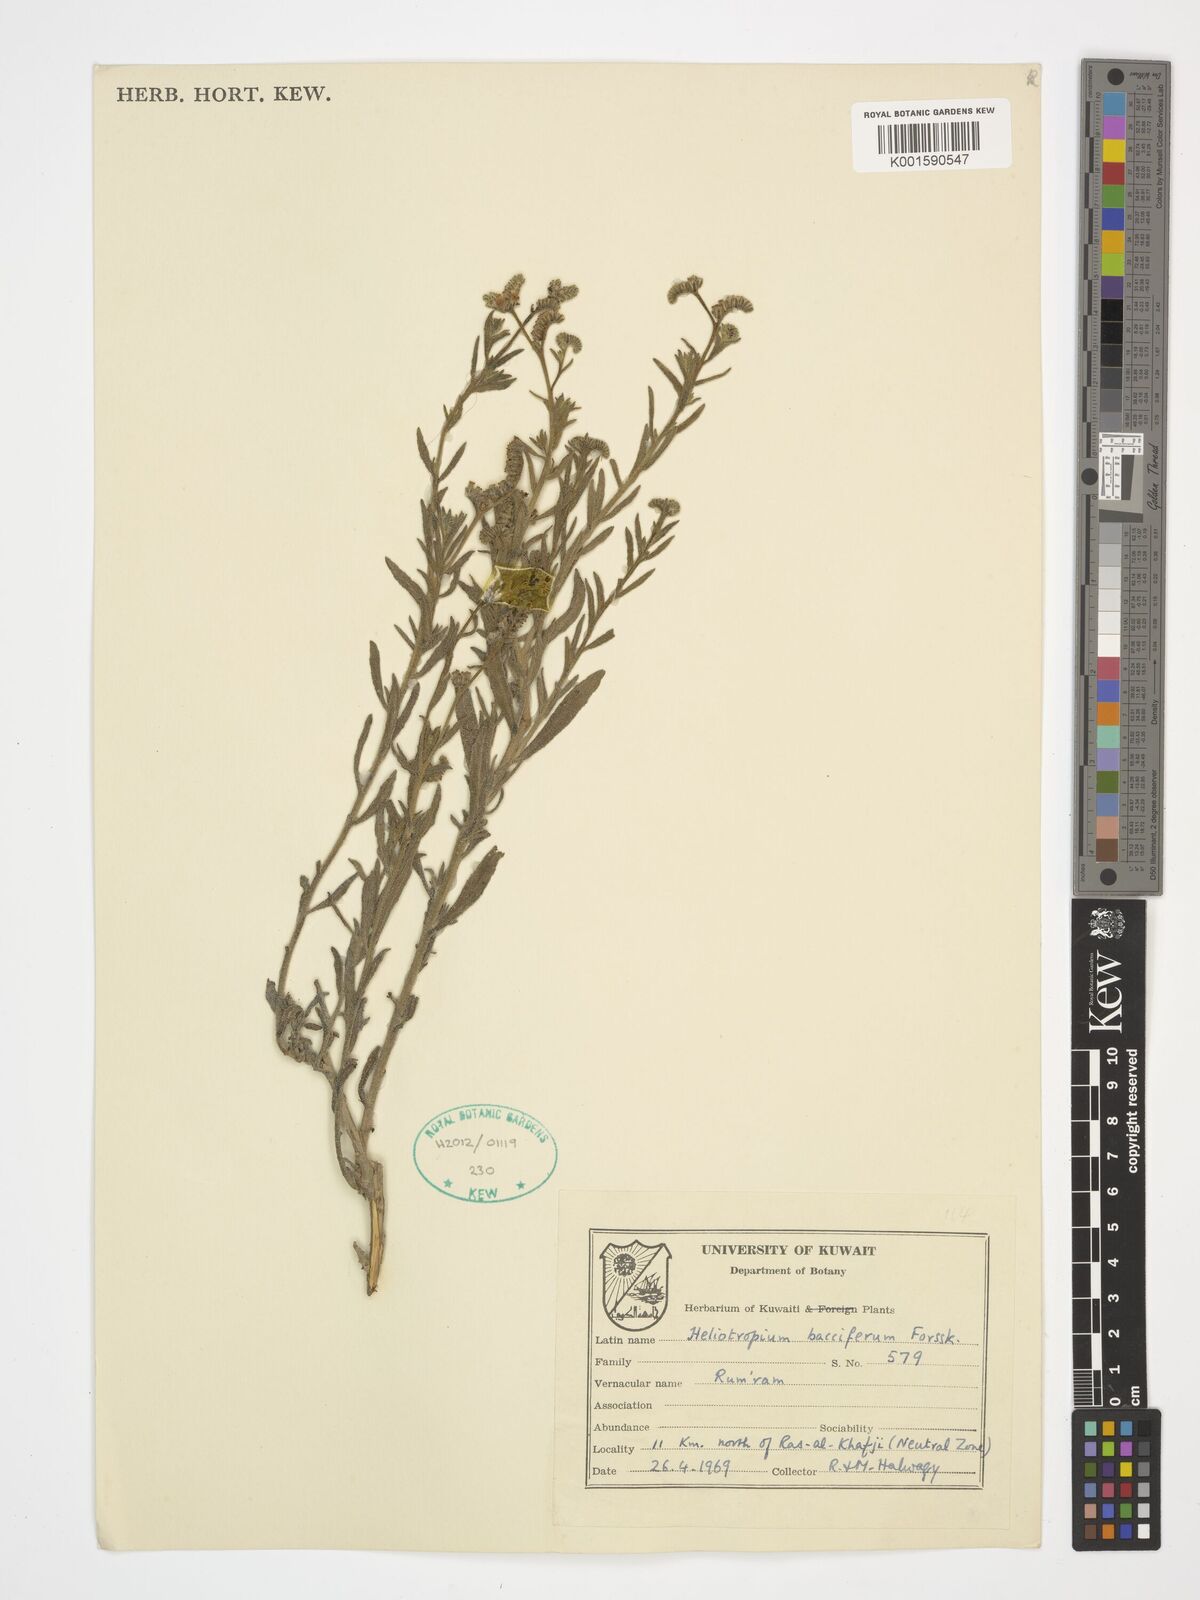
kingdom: Plantae
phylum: Tracheophyta
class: Magnoliopsida
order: Boraginales
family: Heliotropiaceae
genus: Heliotropium
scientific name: Heliotropium bacciferum
